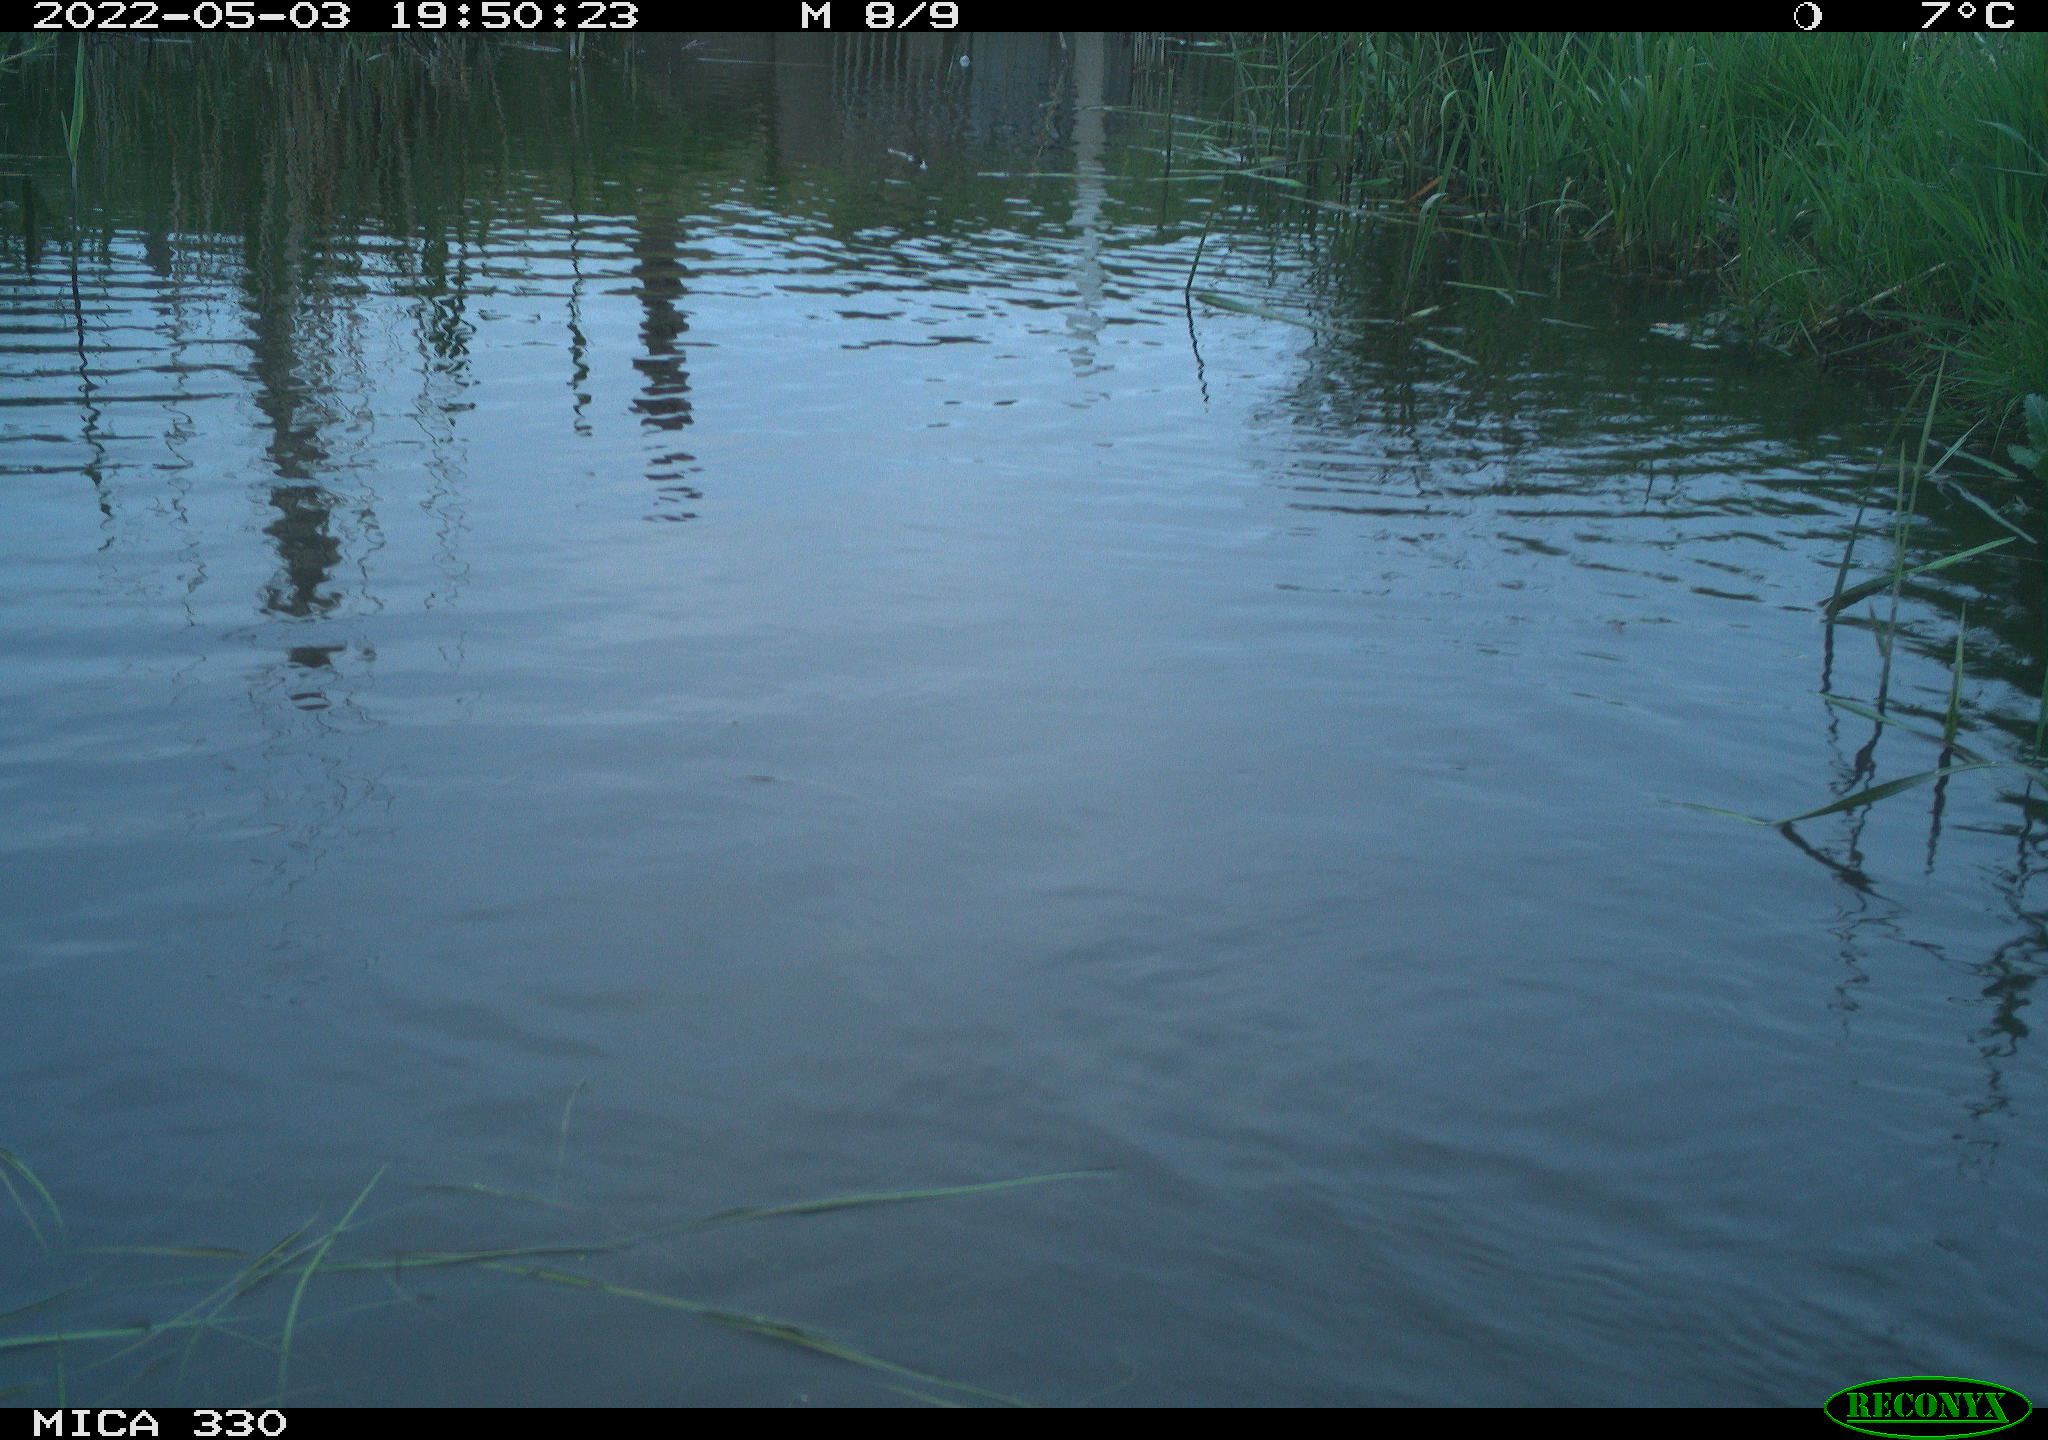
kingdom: Animalia
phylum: Chordata
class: Aves
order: Anseriformes
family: Anatidae
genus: Anas
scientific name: Anas platyrhynchos
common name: Mallard
